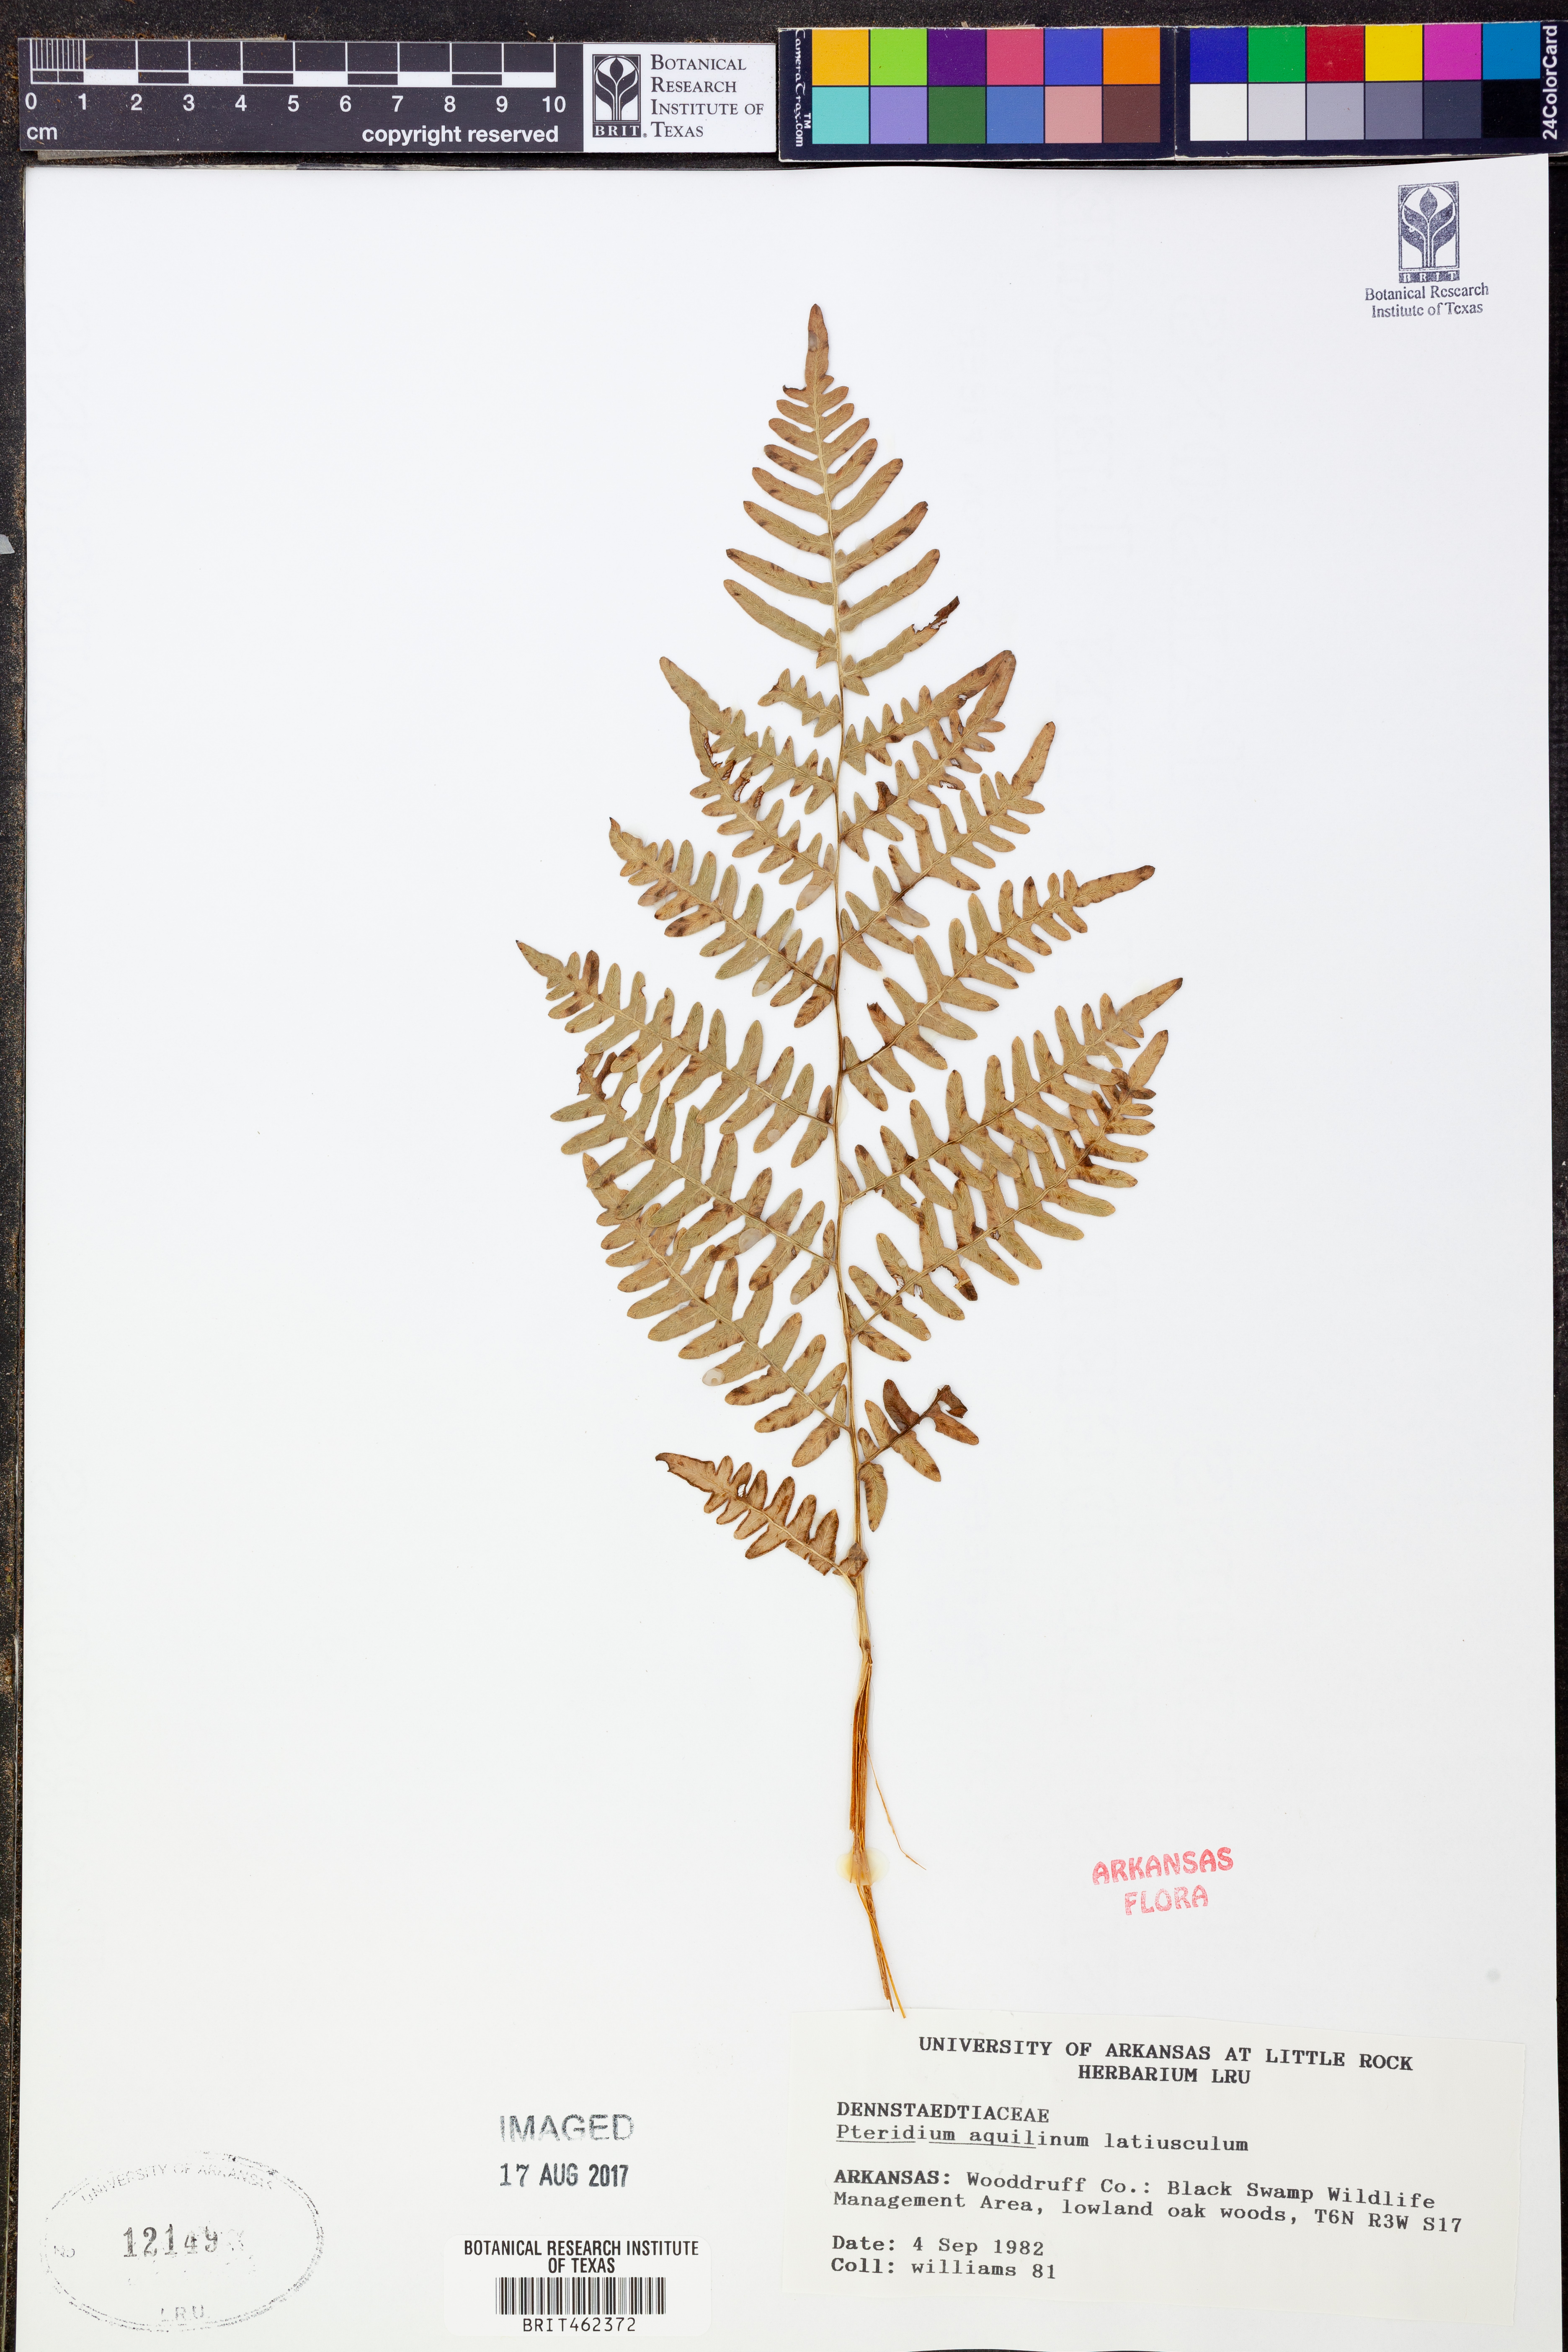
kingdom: Plantae
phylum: Tracheophyta
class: Polypodiopsida
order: Polypodiales
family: Dennstaedtiaceae
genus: Pteridium
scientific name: Pteridium aquilinum
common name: Bracken
